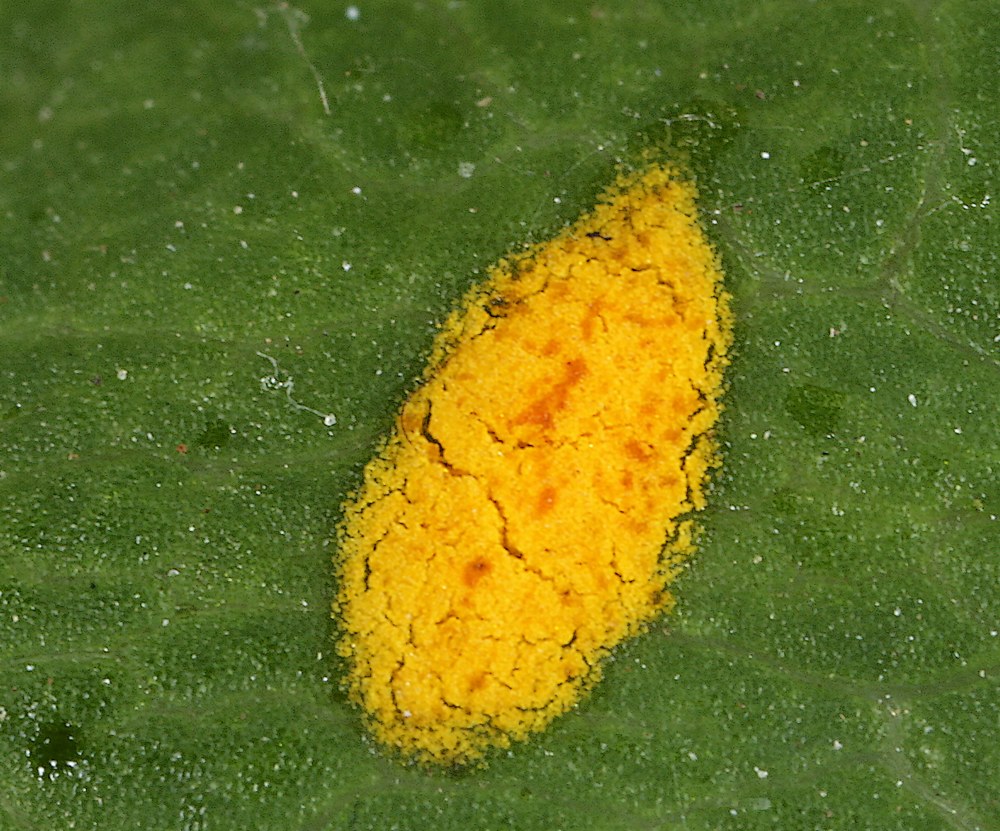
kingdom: Fungi
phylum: Basidiomycota
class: Pucciniomycetes
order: Pucciniales
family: Pucciniaceae
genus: Puccinia
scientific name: Puccinia festucae
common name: gedeblad-tvecellerust
